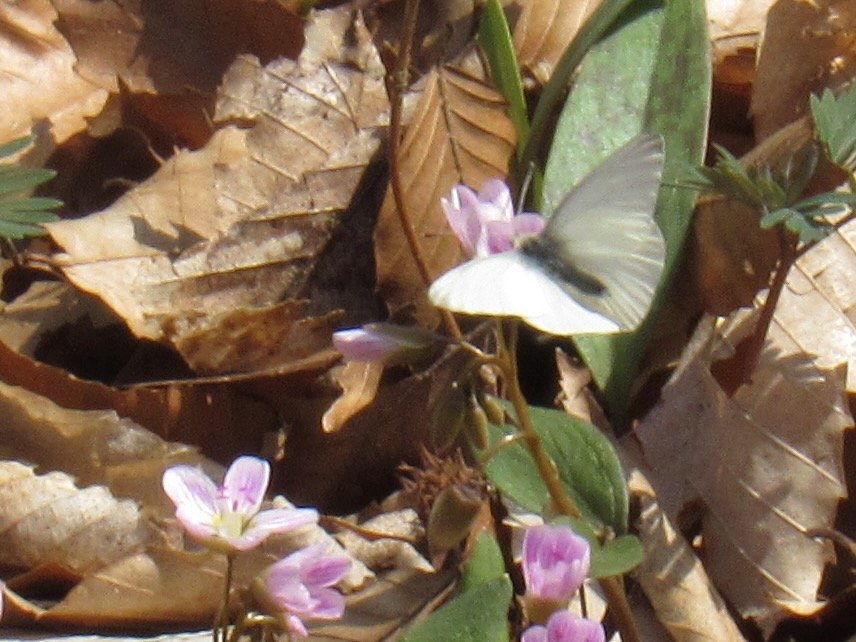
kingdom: Animalia
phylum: Arthropoda
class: Insecta
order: Lepidoptera
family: Pieridae
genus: Pieris
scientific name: Pieris virginiensis
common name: West Virginia White
